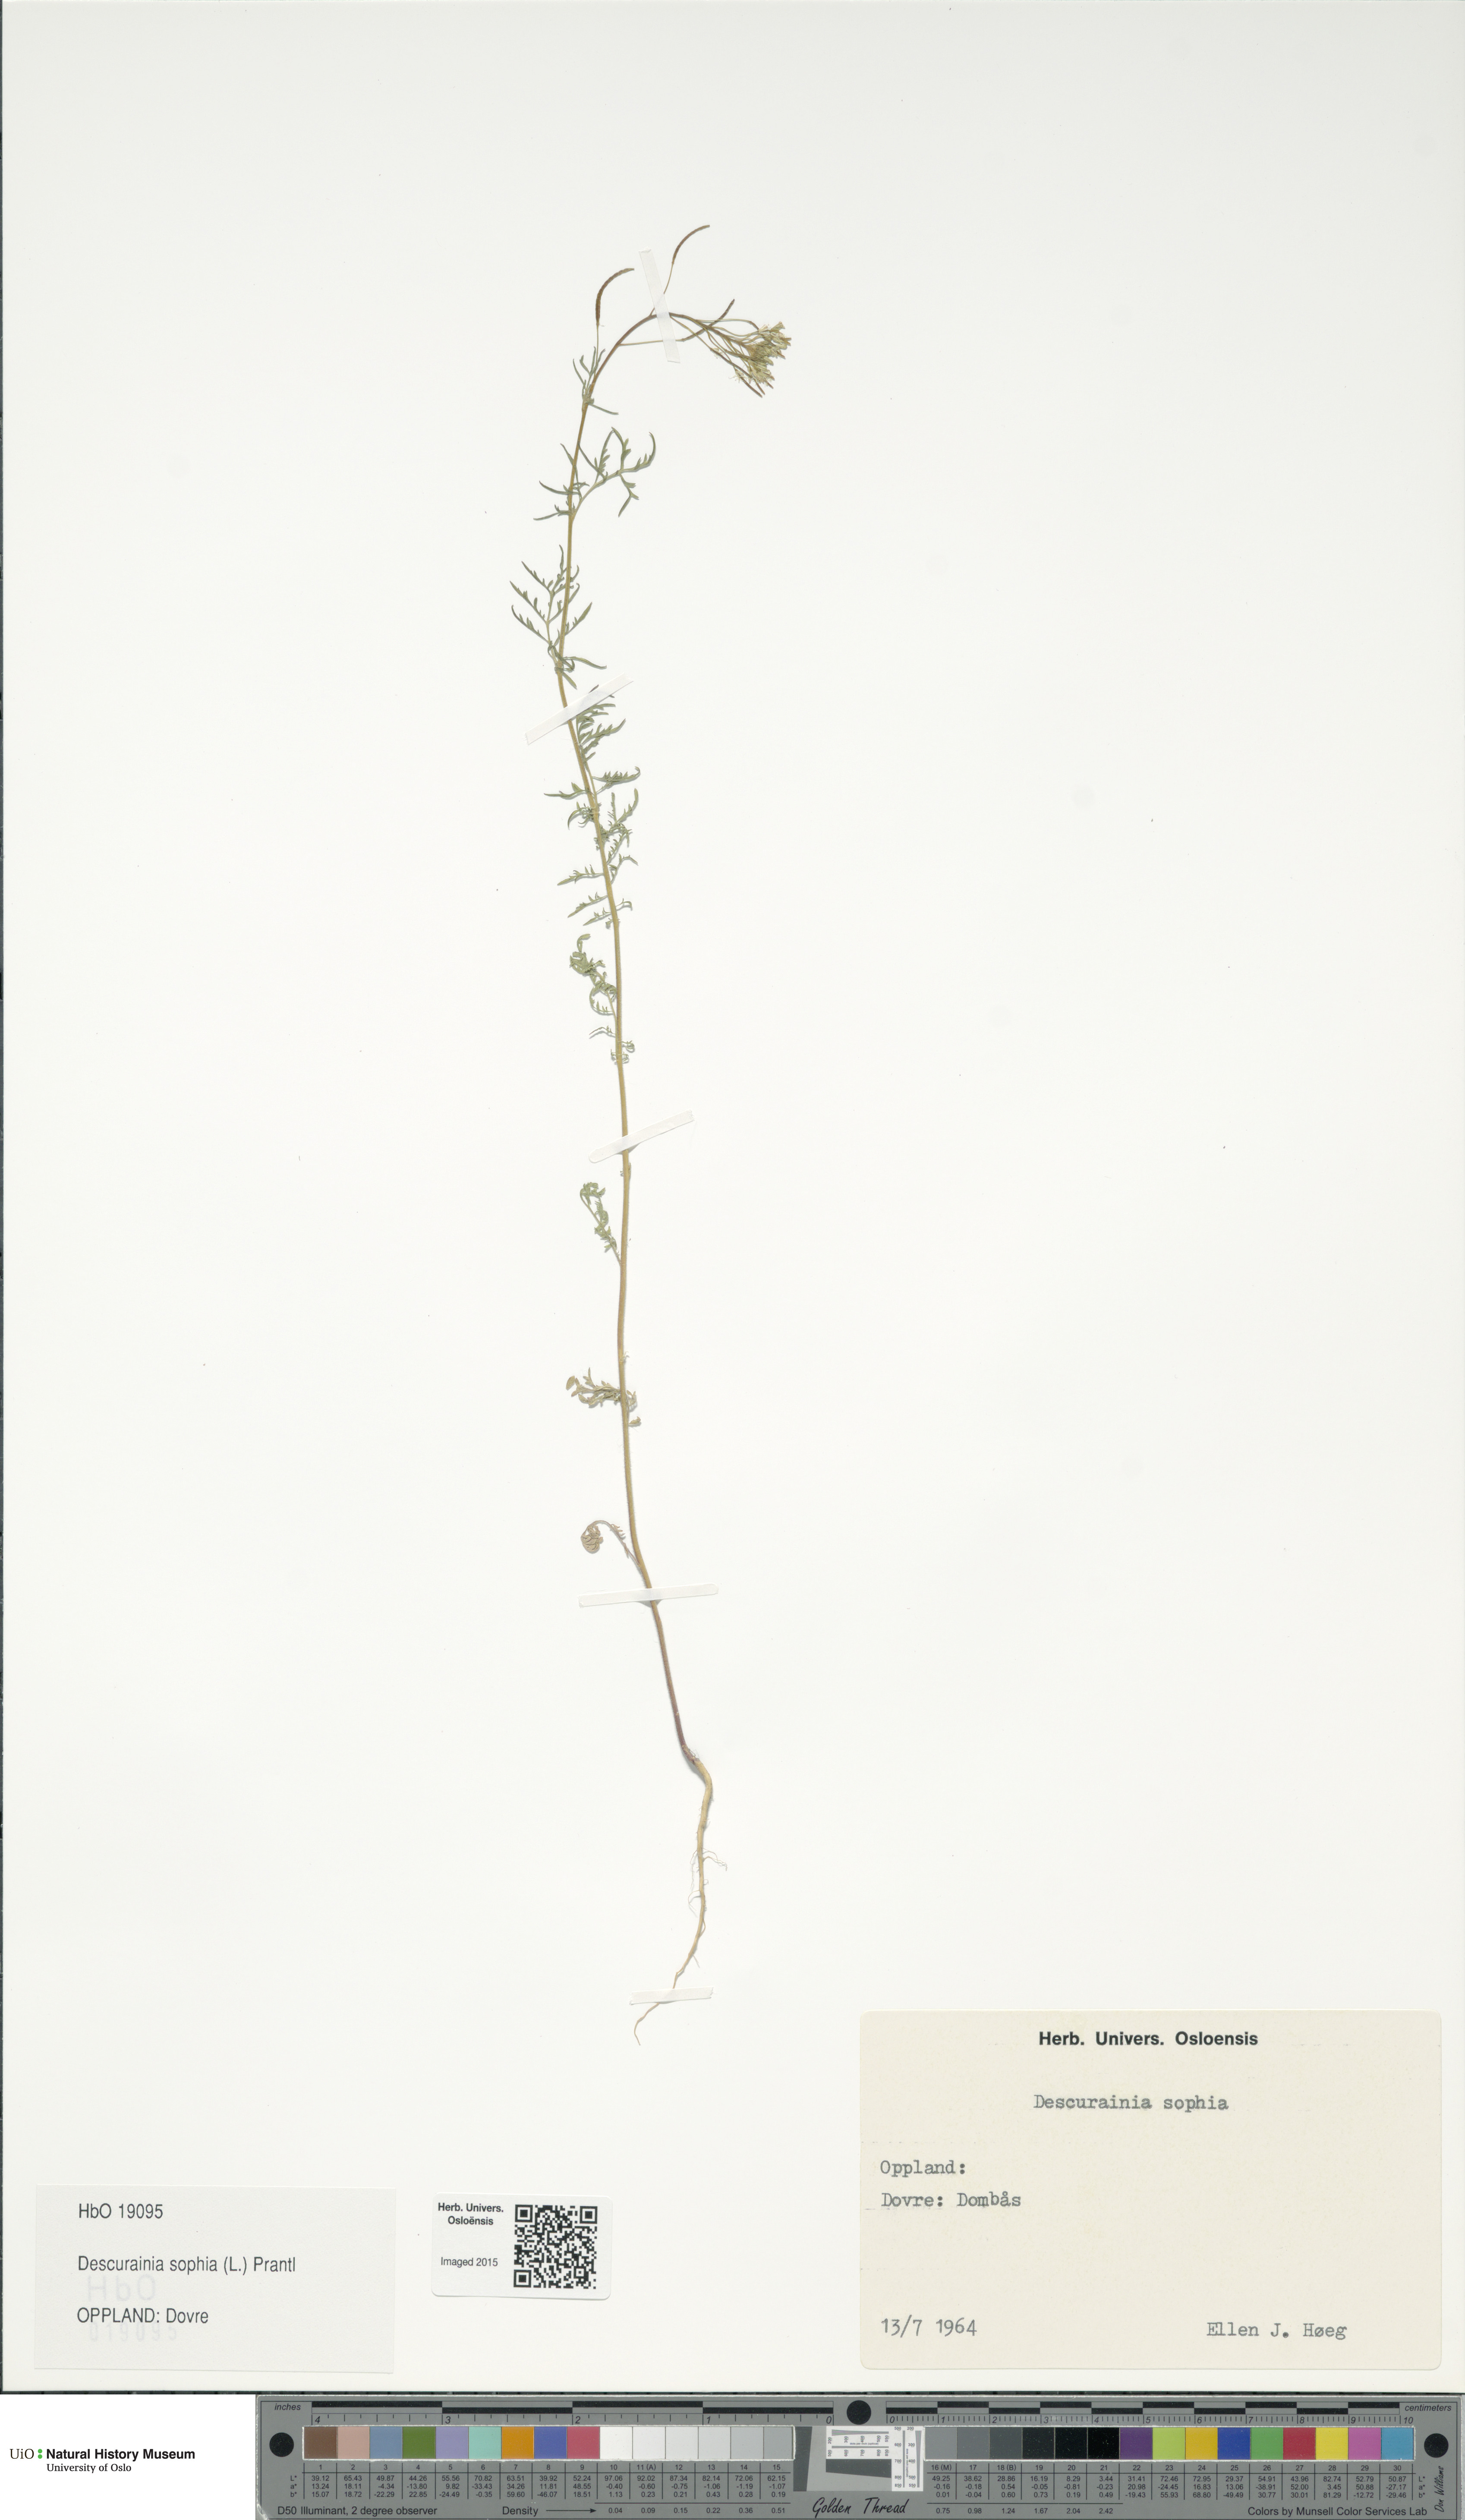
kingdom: Plantae
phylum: Tracheophyta
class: Magnoliopsida
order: Brassicales
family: Brassicaceae
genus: Descurainia
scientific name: Descurainia sophia
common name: Flixweed
